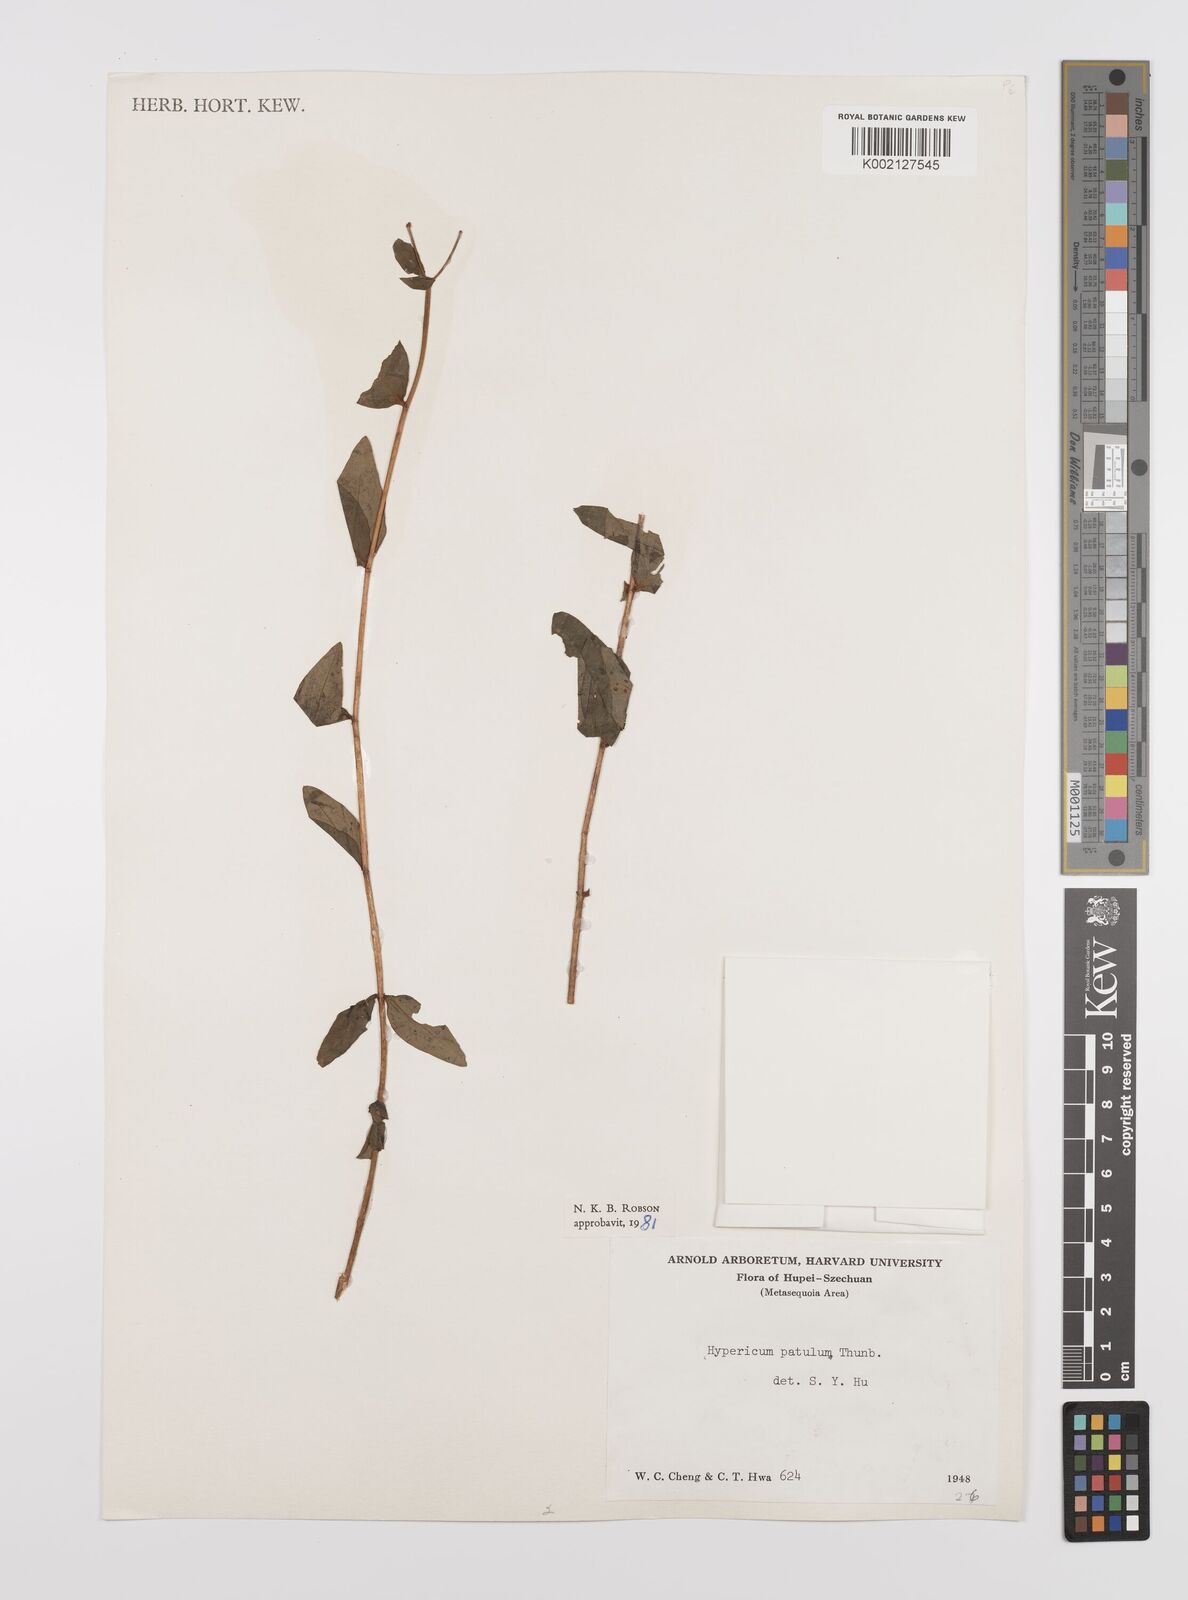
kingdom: Plantae
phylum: Tracheophyta
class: Magnoliopsida
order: Malpighiales
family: Hypericaceae
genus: Hypericum
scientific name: Hypericum patulum
